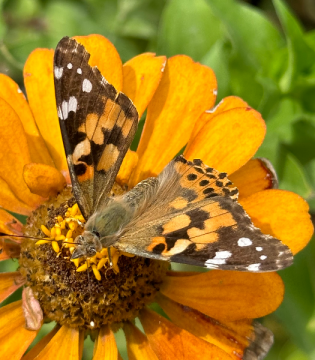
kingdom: Animalia
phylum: Arthropoda
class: Insecta
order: Lepidoptera
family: Nymphalidae
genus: Vanessa
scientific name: Vanessa cardui
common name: Painted Lady
